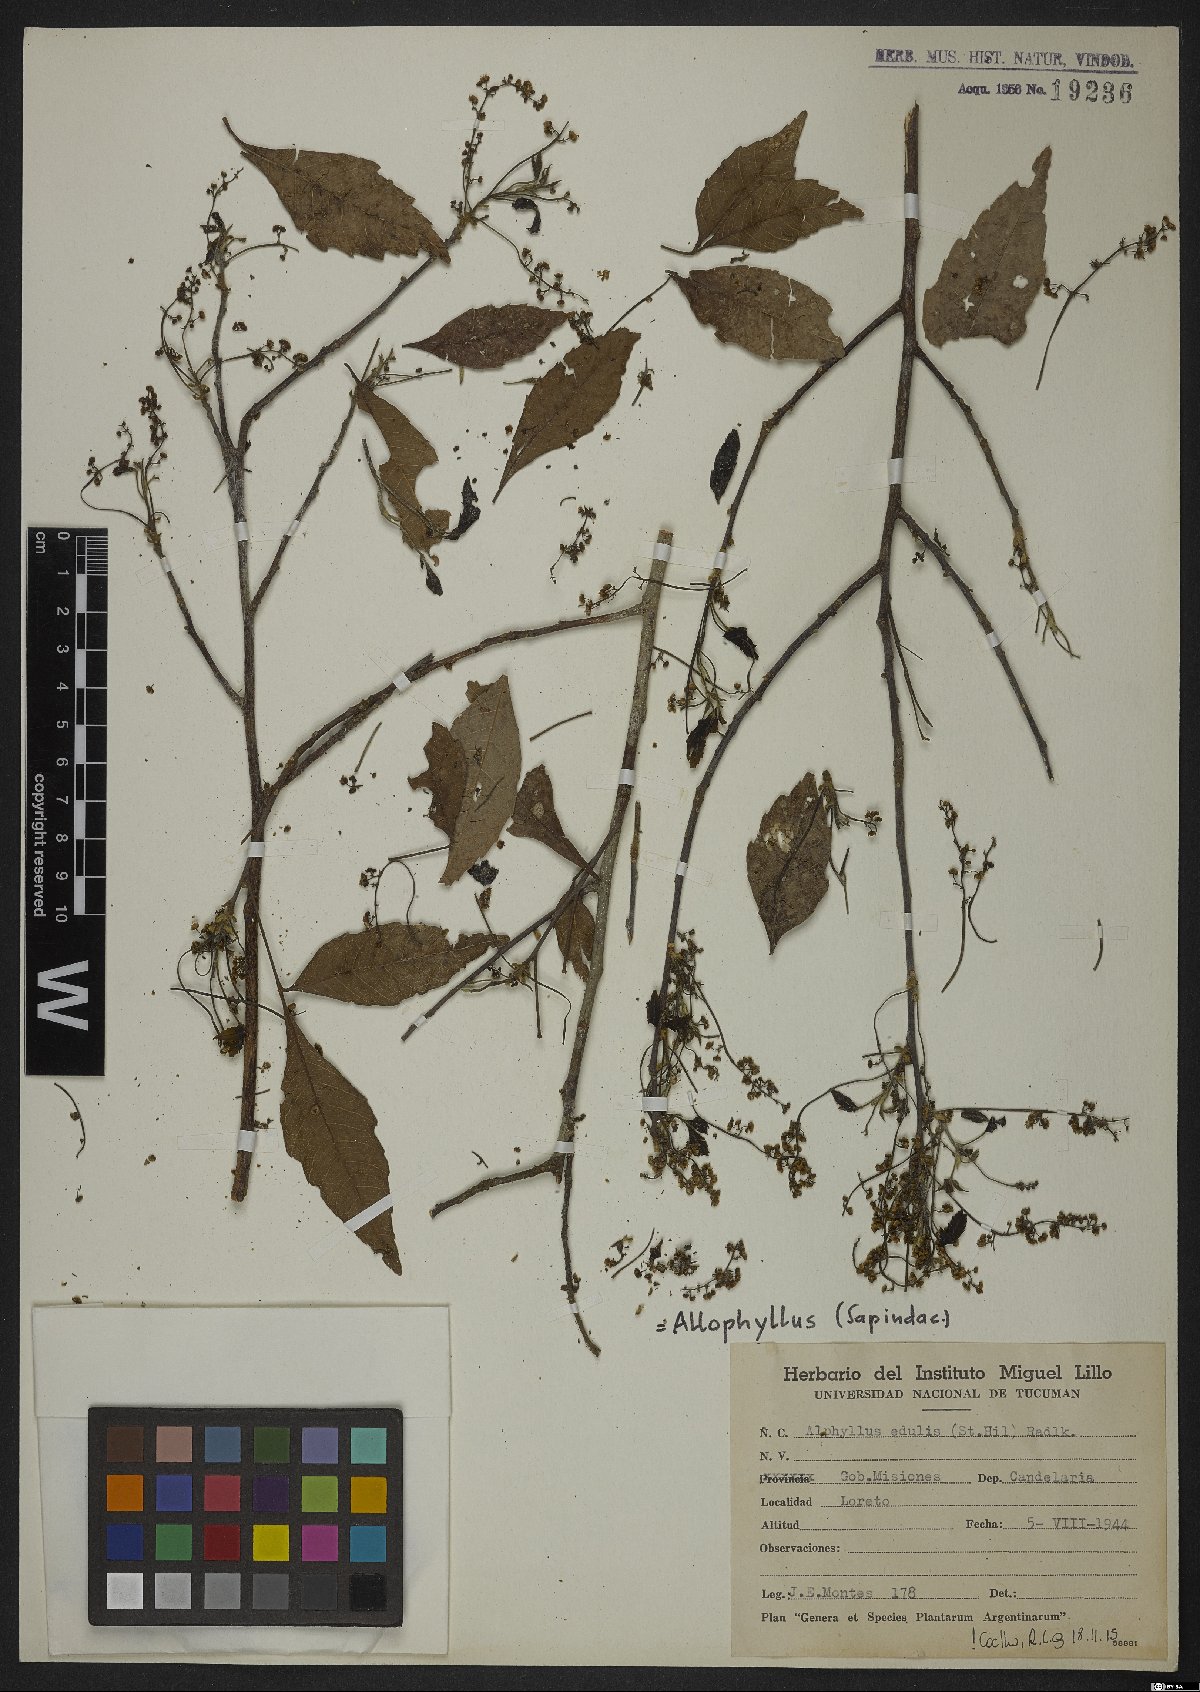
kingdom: Plantae
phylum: Tracheophyta
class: Magnoliopsida
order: Sapindales
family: Sapindaceae
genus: Allophylus
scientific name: Allophylus edulis
